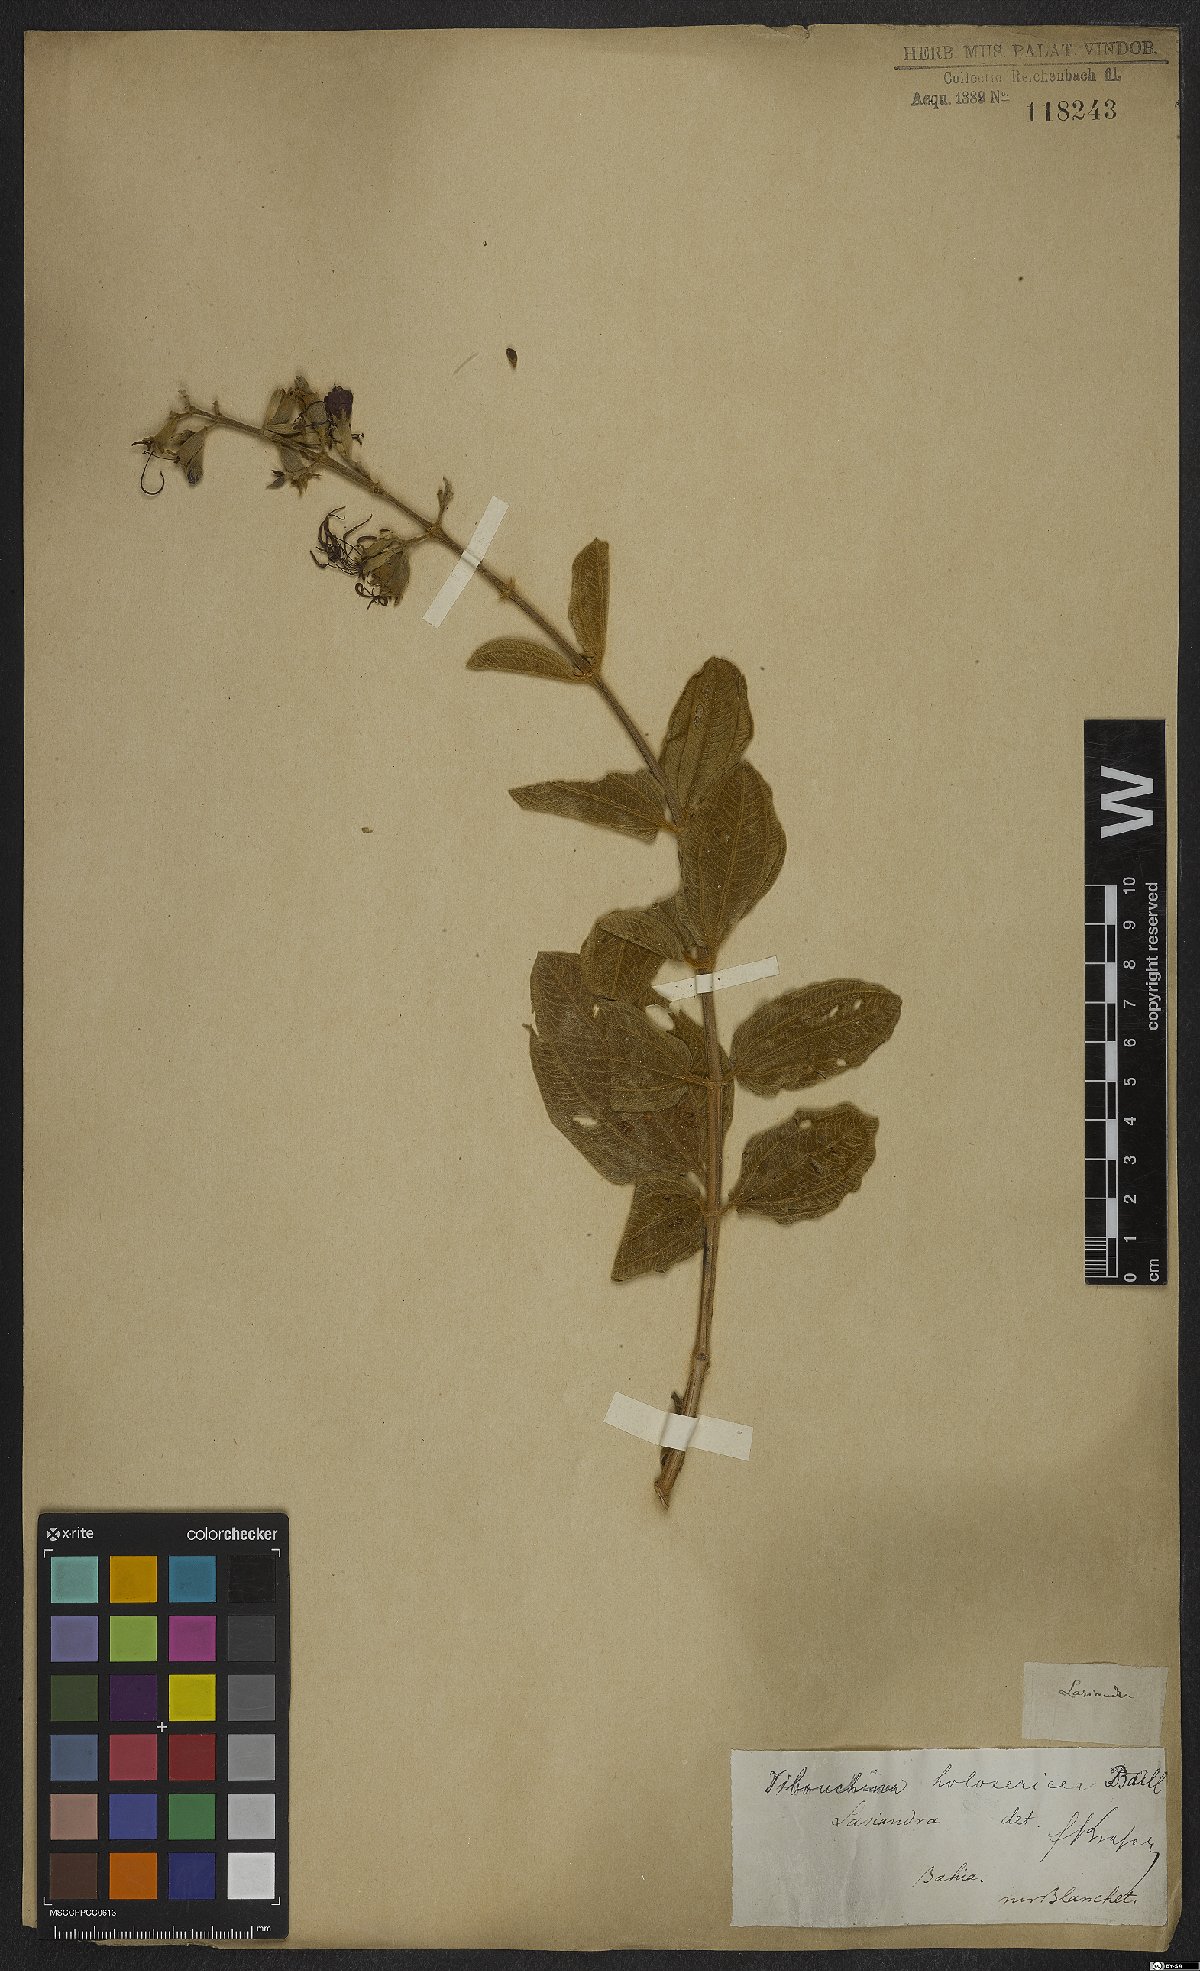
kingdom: Plantae
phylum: Tracheophyta
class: Magnoliopsida
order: Myrtales
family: Melastomataceae
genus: Pleroma
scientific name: Pleroma clavatum
